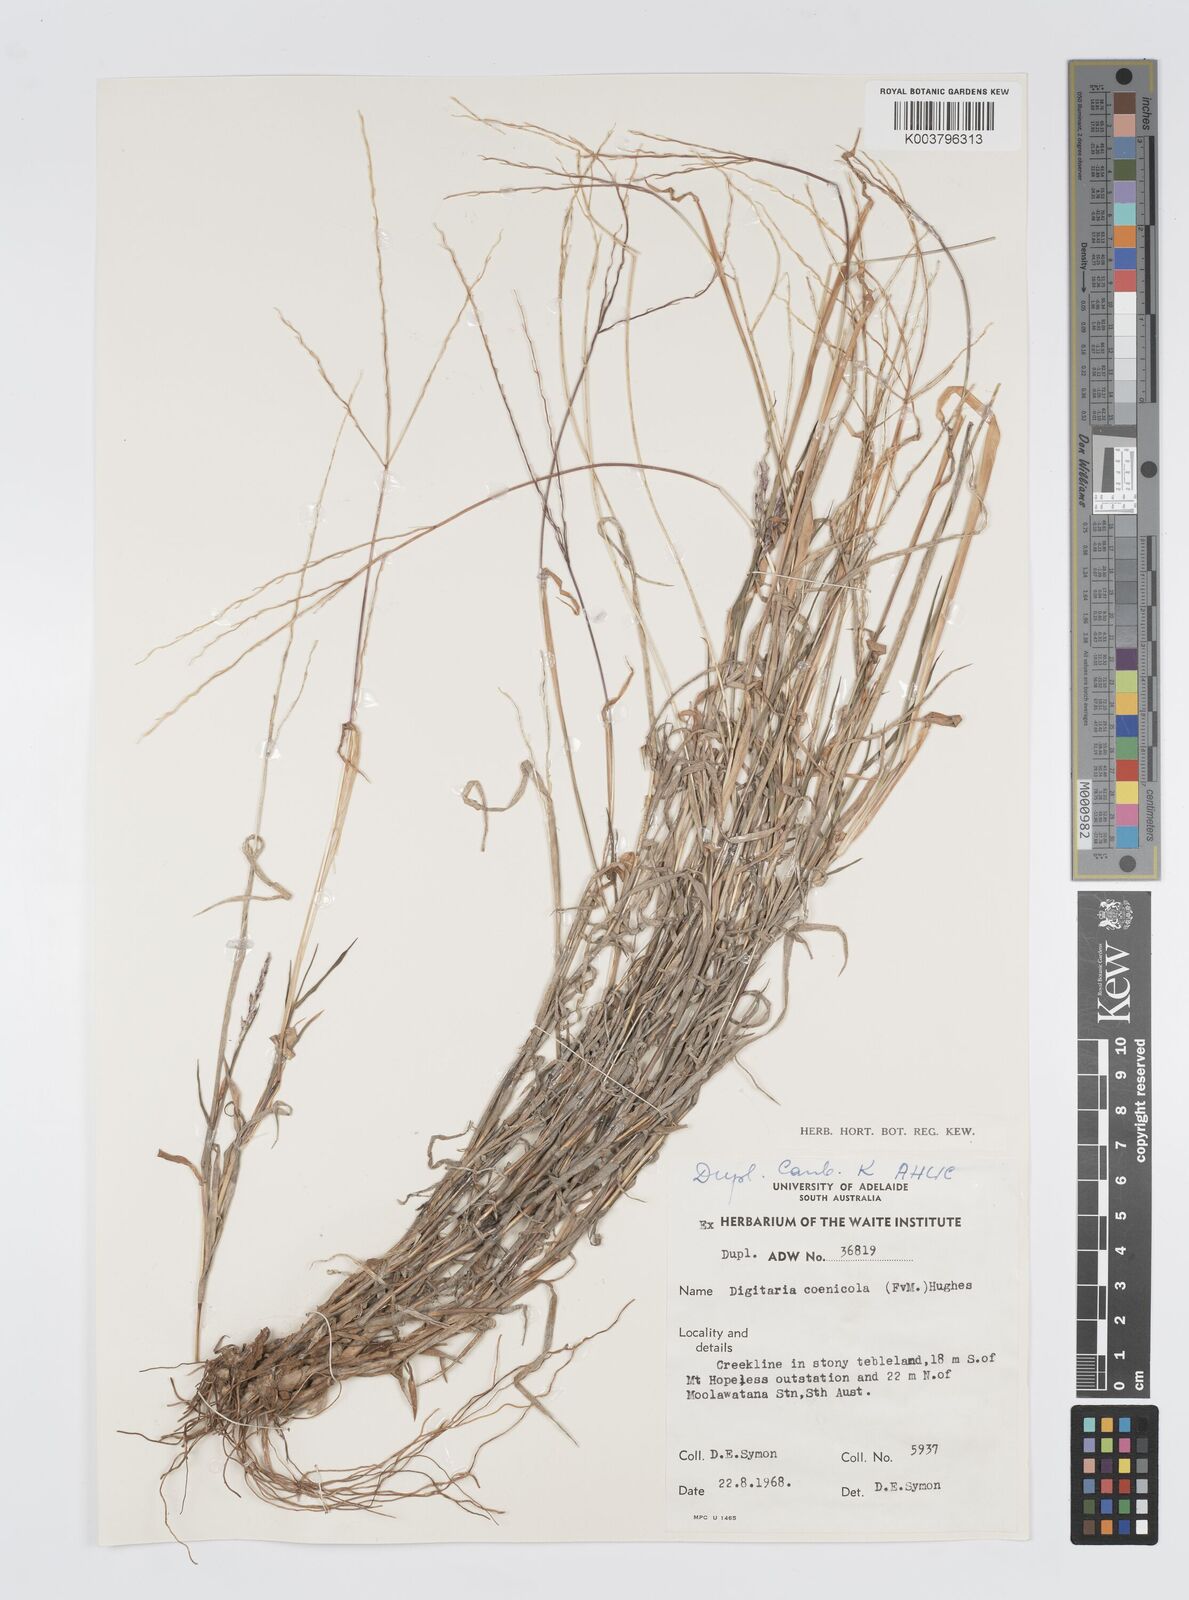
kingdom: Plantae
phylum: Tracheophyta
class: Liliopsida
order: Poales
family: Poaceae
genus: Digitaria
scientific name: Digitaria coenicola
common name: Kanta grass
